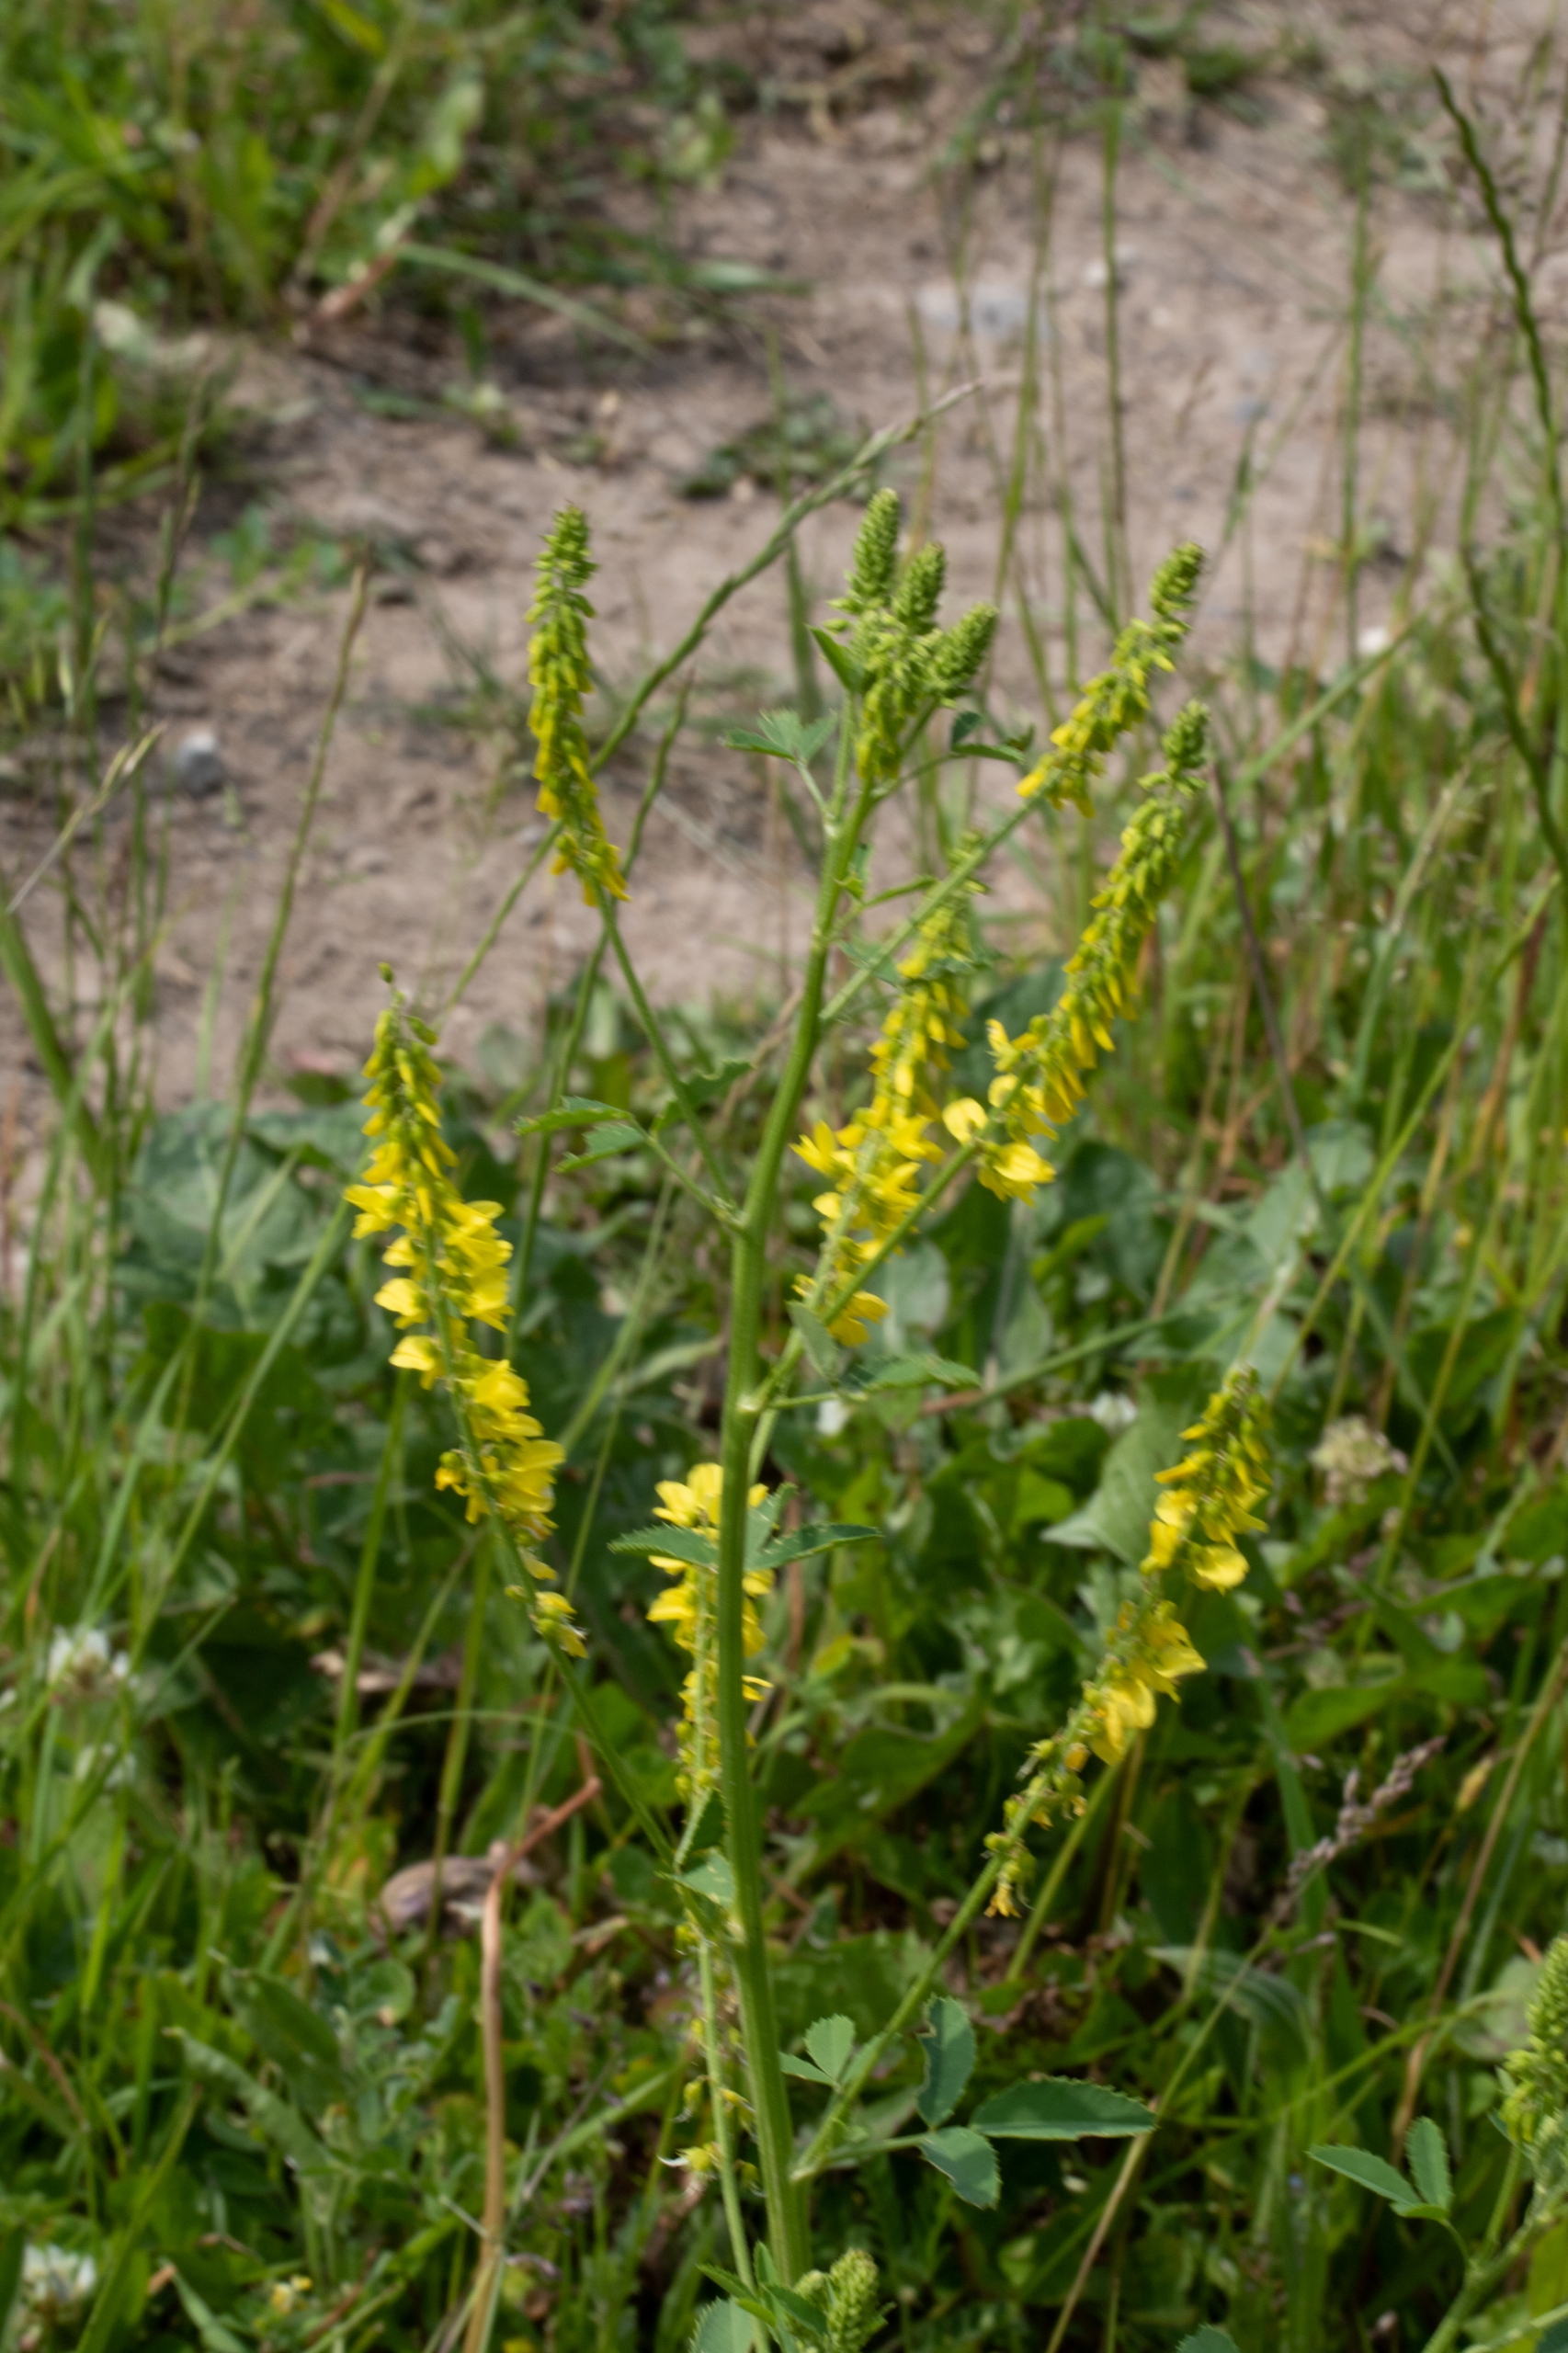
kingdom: Plantae
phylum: Tracheophyta
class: Magnoliopsida
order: Fabales
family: Fabaceae
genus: Melilotus
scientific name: Melilotus officinalis
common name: Mark-stenkløver
